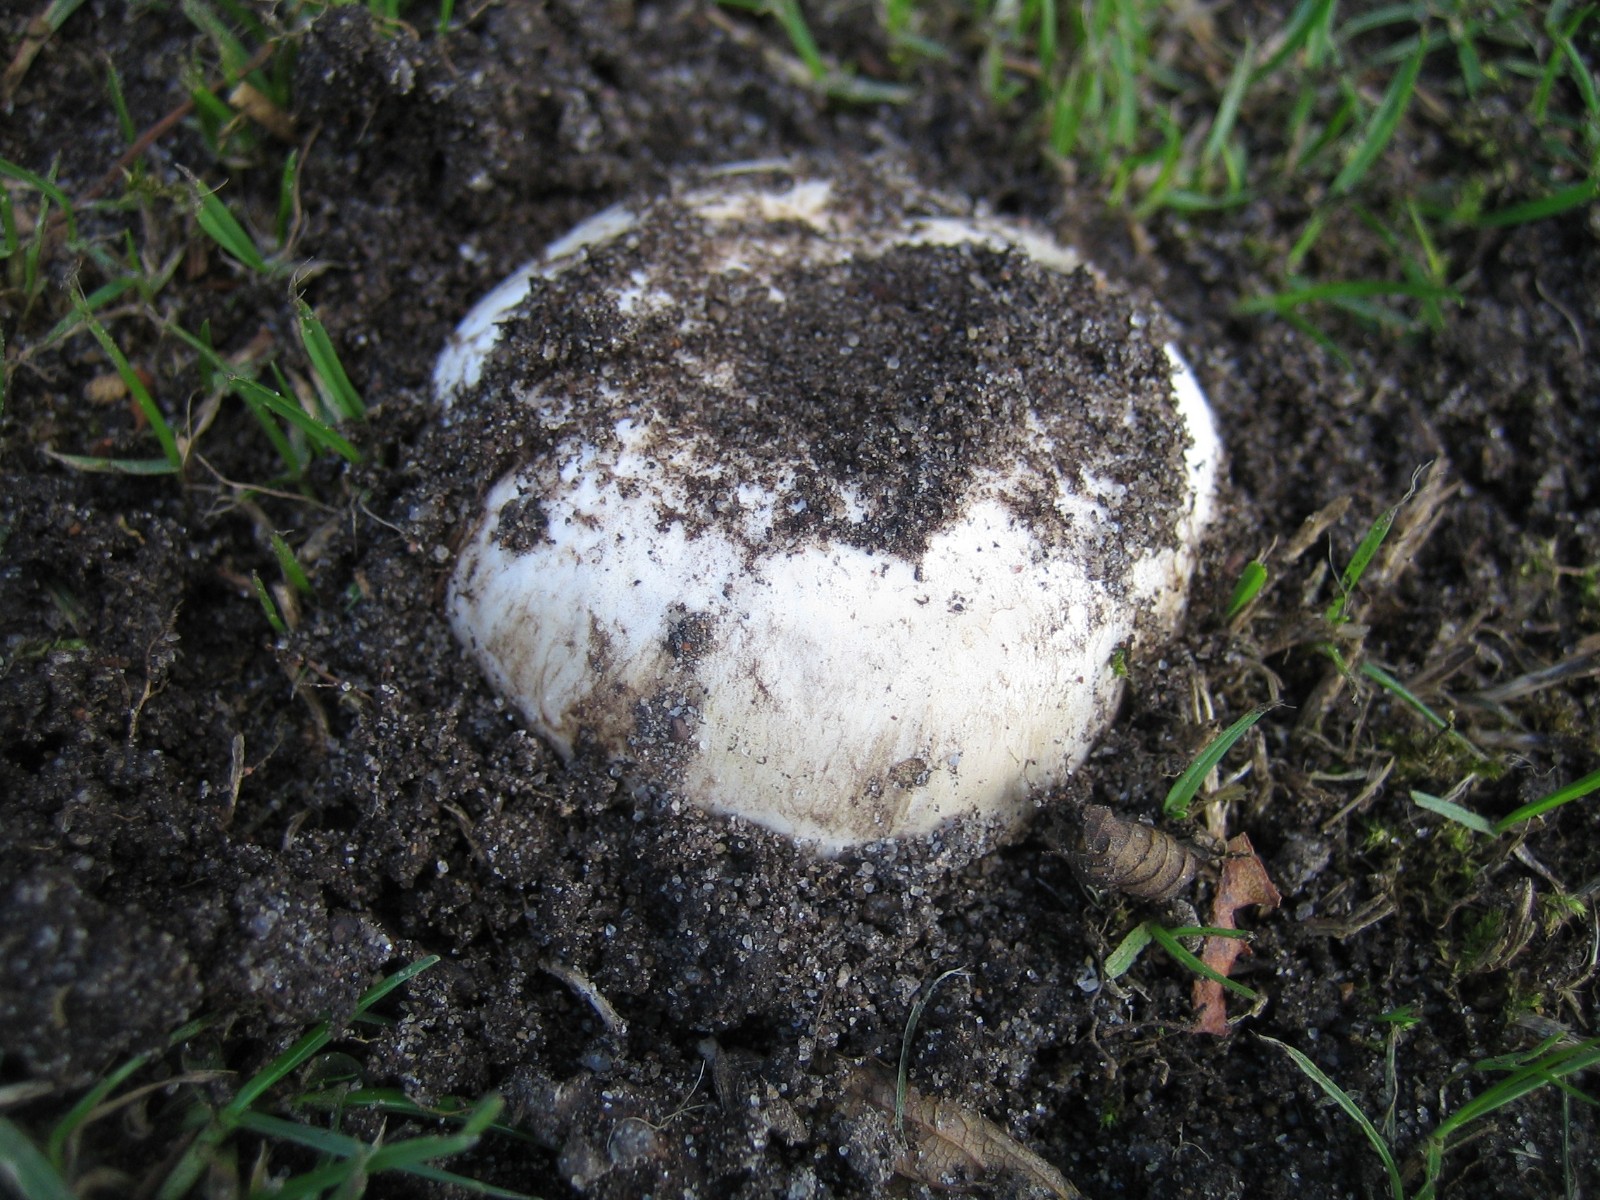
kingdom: Fungi
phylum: Basidiomycota
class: Agaricomycetes
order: Agaricales
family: Agaricaceae
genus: Agaricus
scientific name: Agaricus bitorquis
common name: vej-champignon
